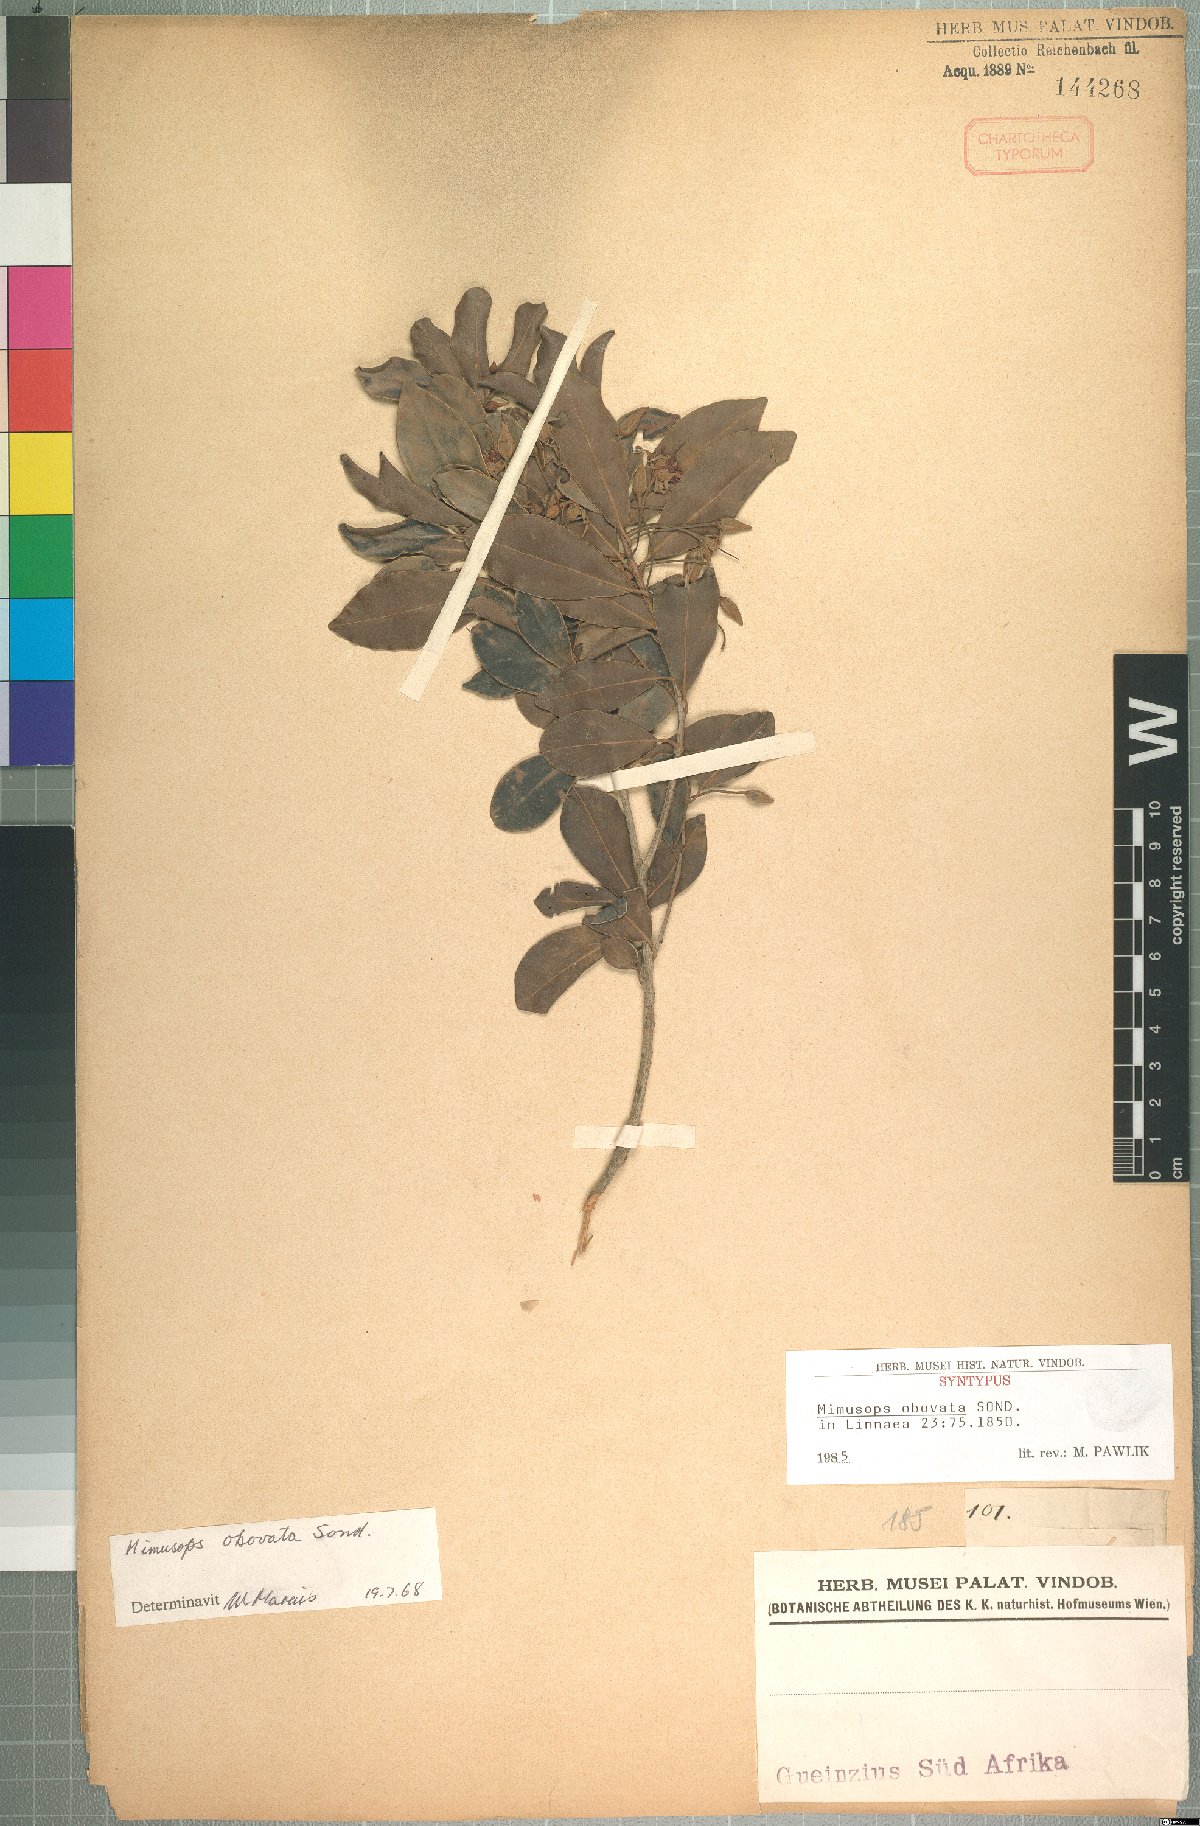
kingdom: Plantae
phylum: Tracheophyta
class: Magnoliopsida
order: Ericales
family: Sapotaceae
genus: Mimusops
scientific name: Mimusops obovata
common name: Red milkwood
